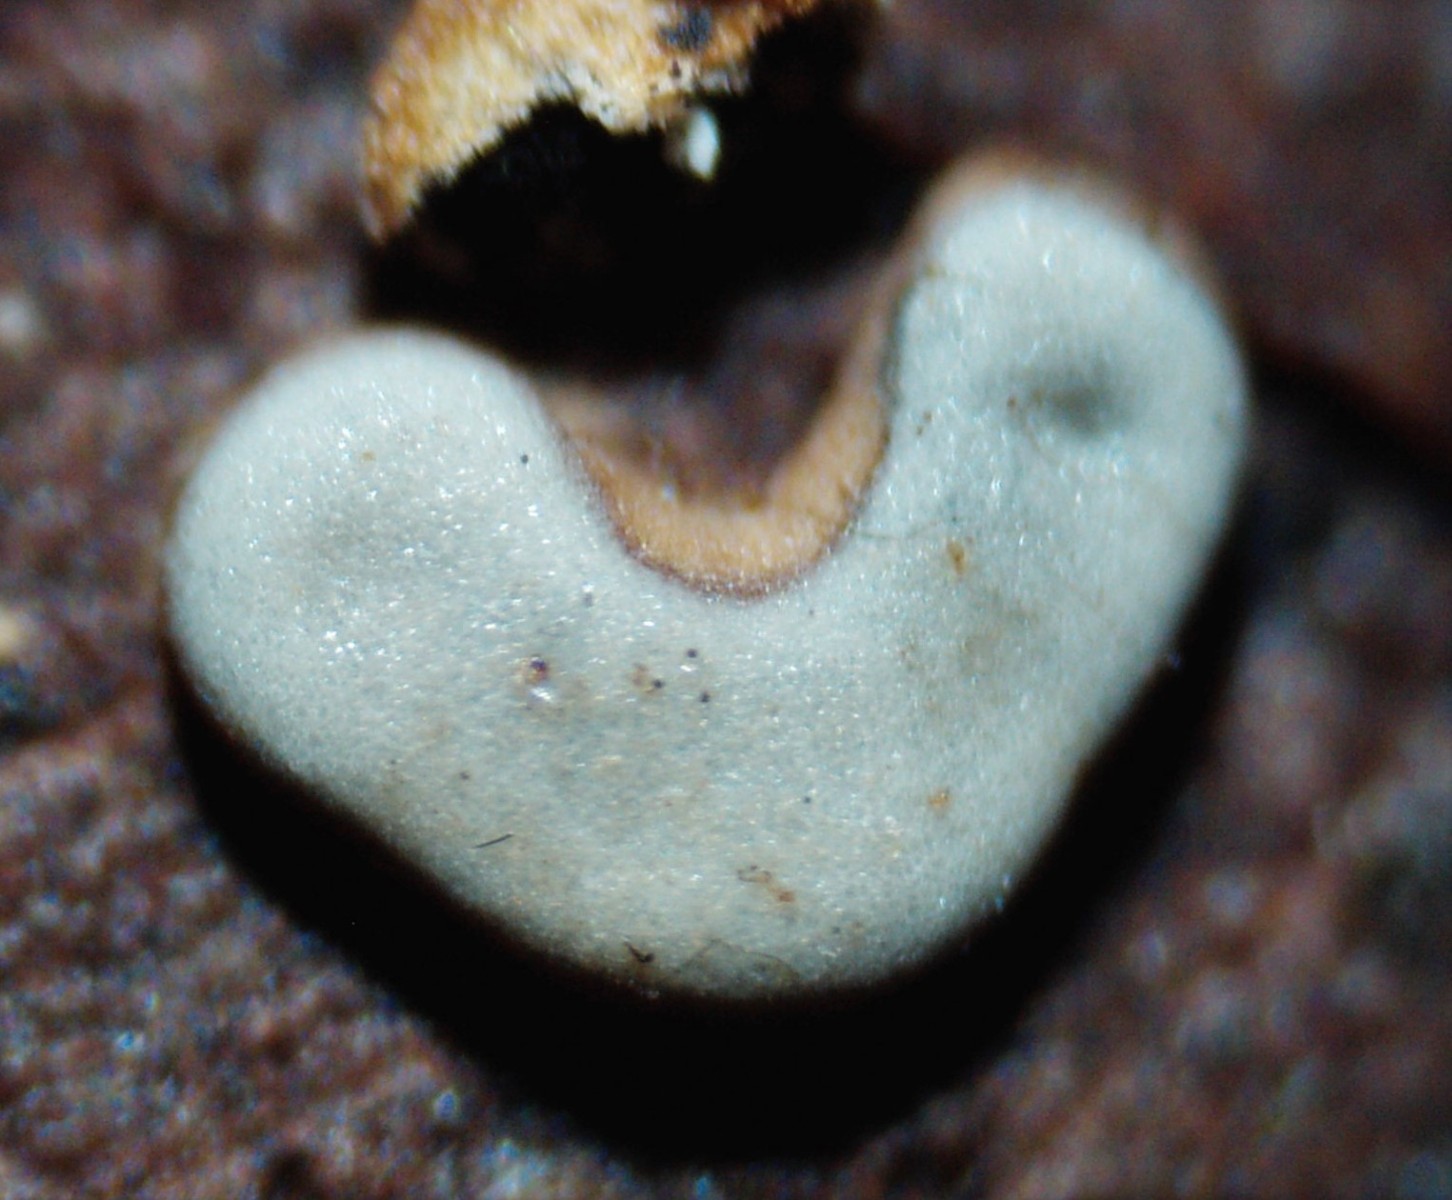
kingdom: Protozoa
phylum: Mycetozoa
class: Myxomycetes
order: Physarales
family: Didymiaceae
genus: Didymium
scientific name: Didymium difforme
